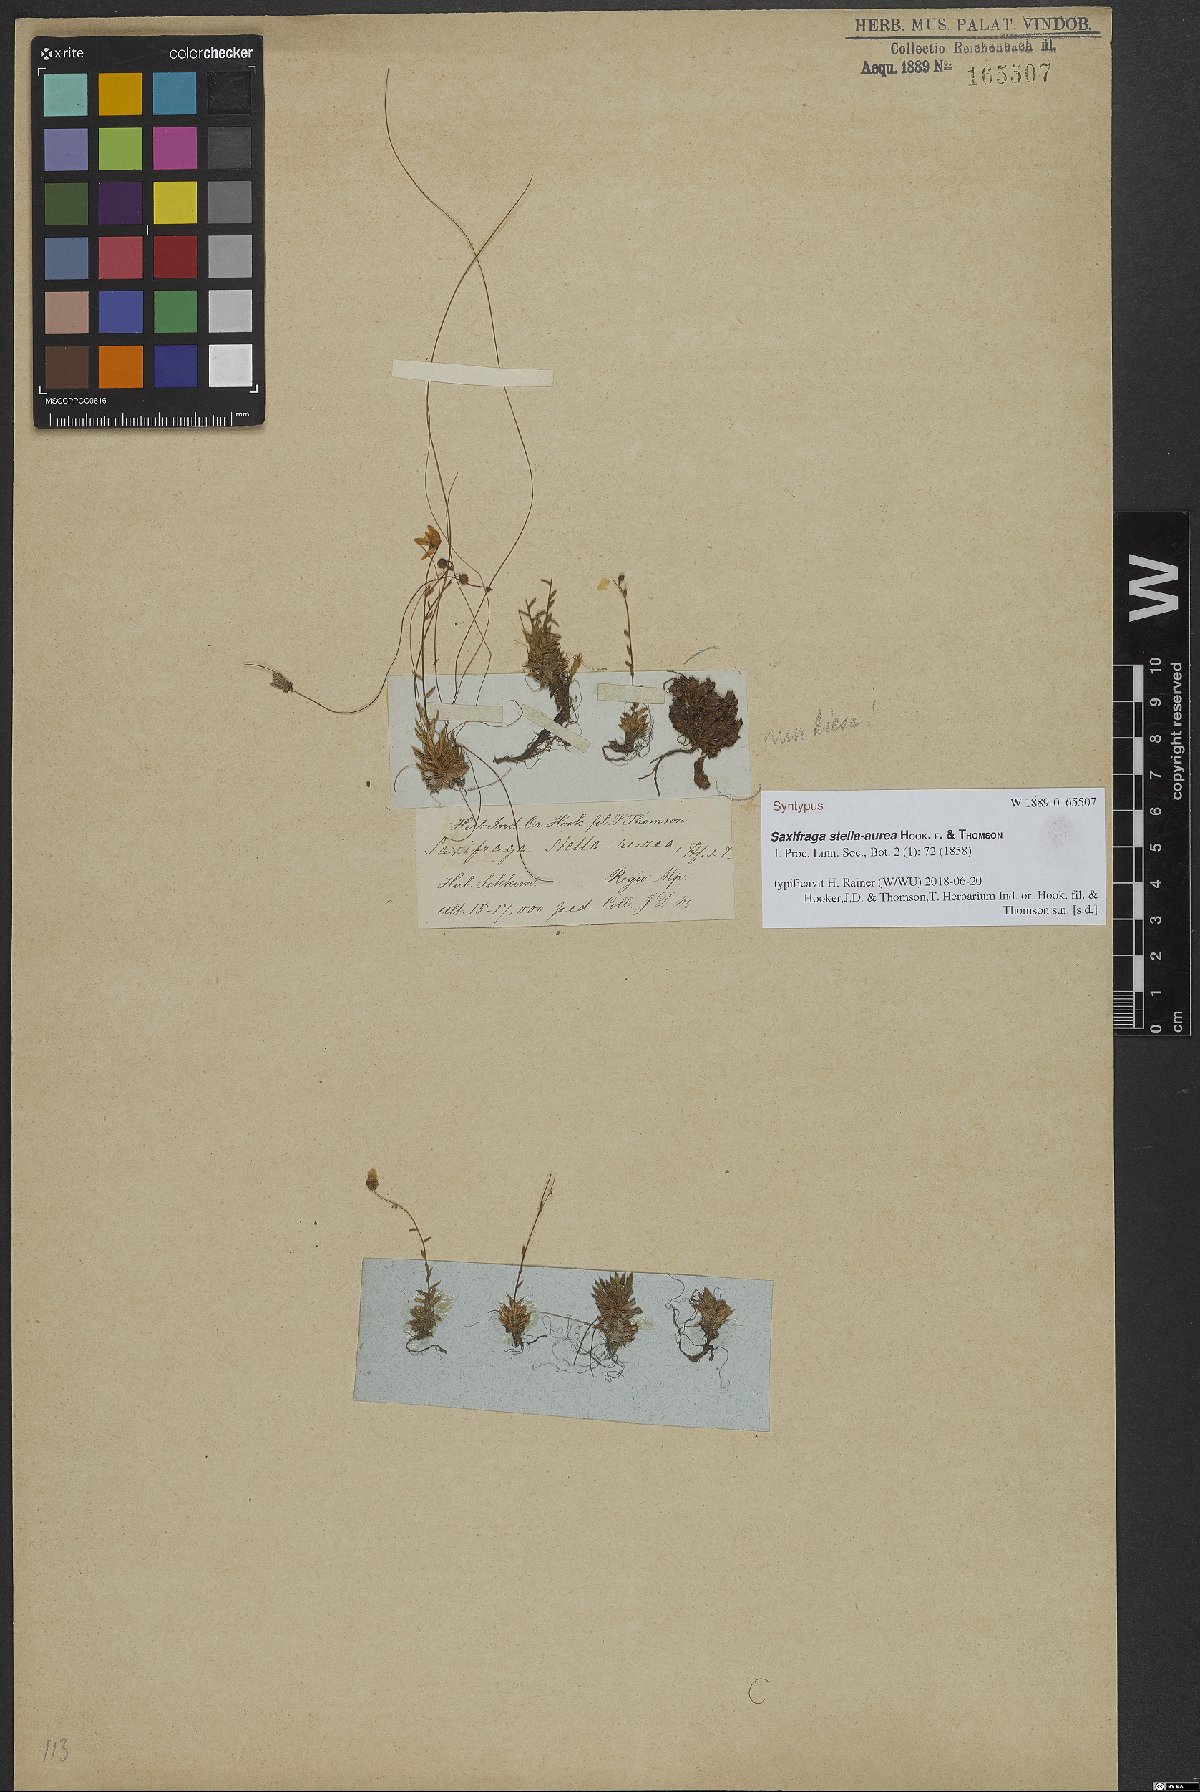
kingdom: Plantae
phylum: Tracheophyta
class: Magnoliopsida
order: Saxifragales
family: Saxifragaceae
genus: Saxifraga
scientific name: Saxifraga stella-aurea
